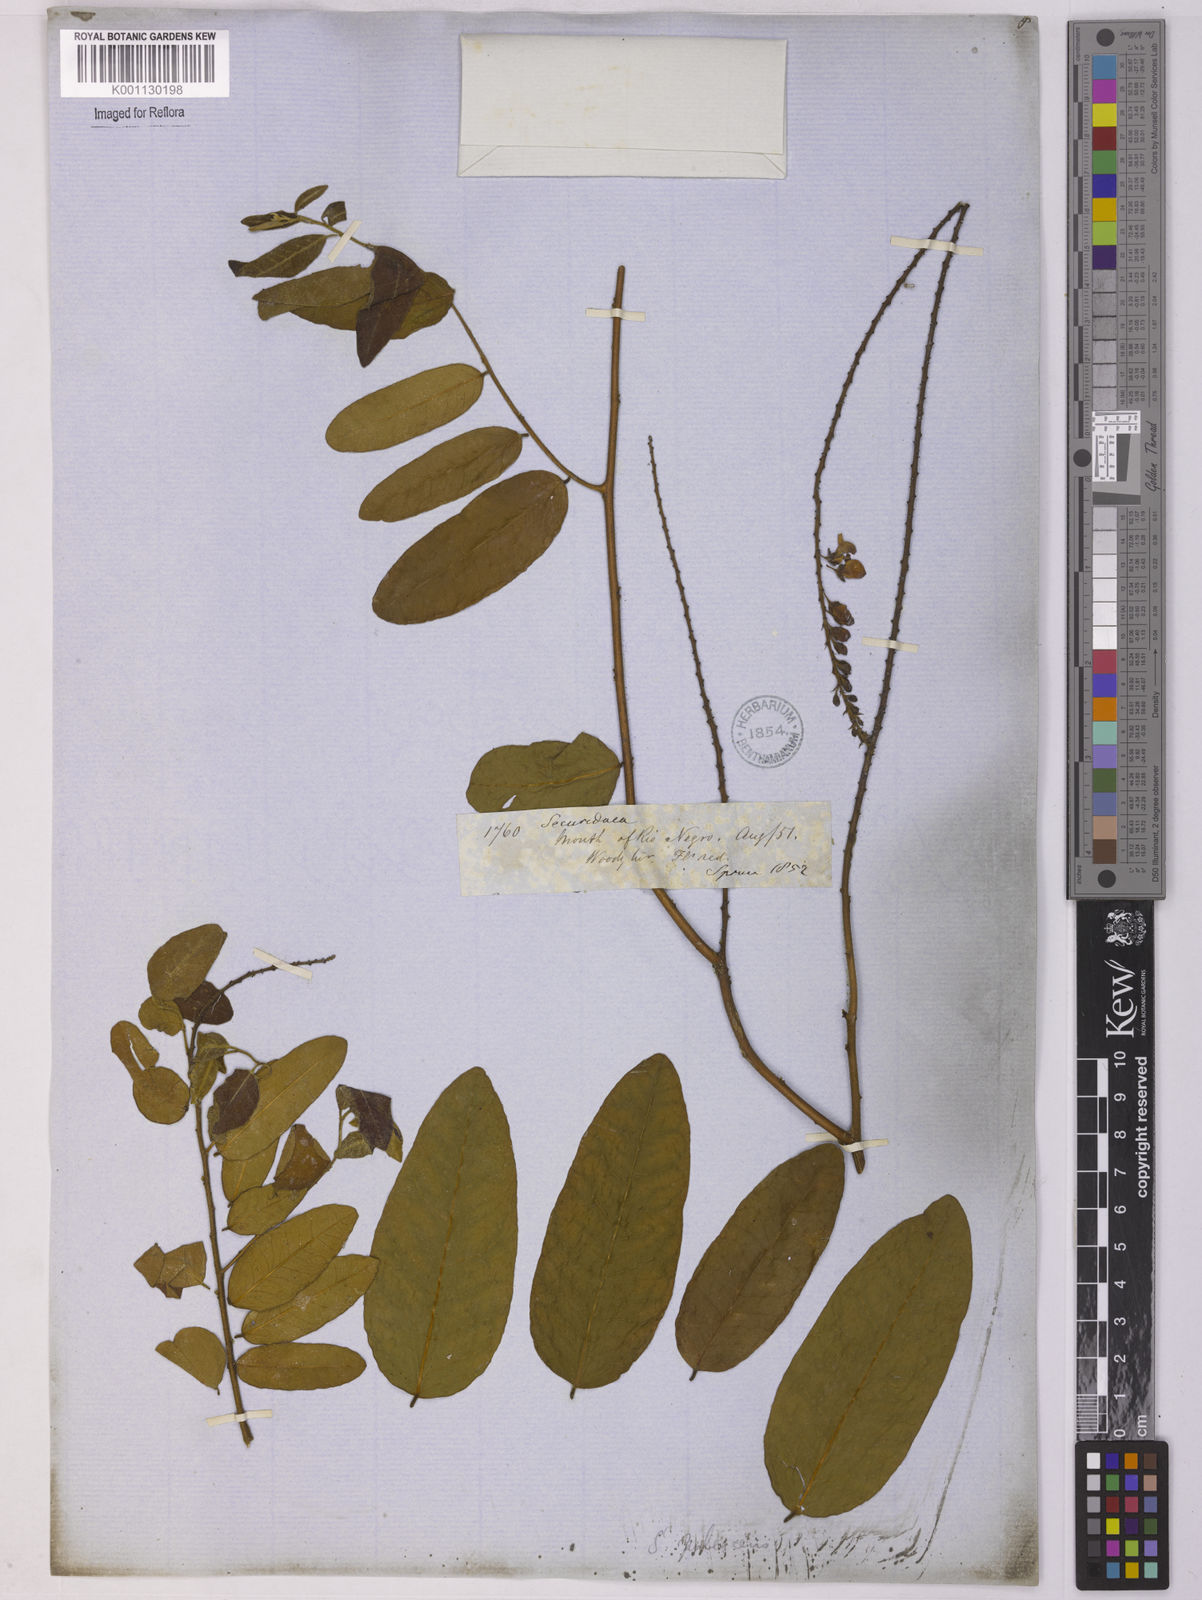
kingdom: Plantae
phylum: Tracheophyta
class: Magnoliopsida
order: Fabales
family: Polygalaceae
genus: Securidaca
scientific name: Securidaca
